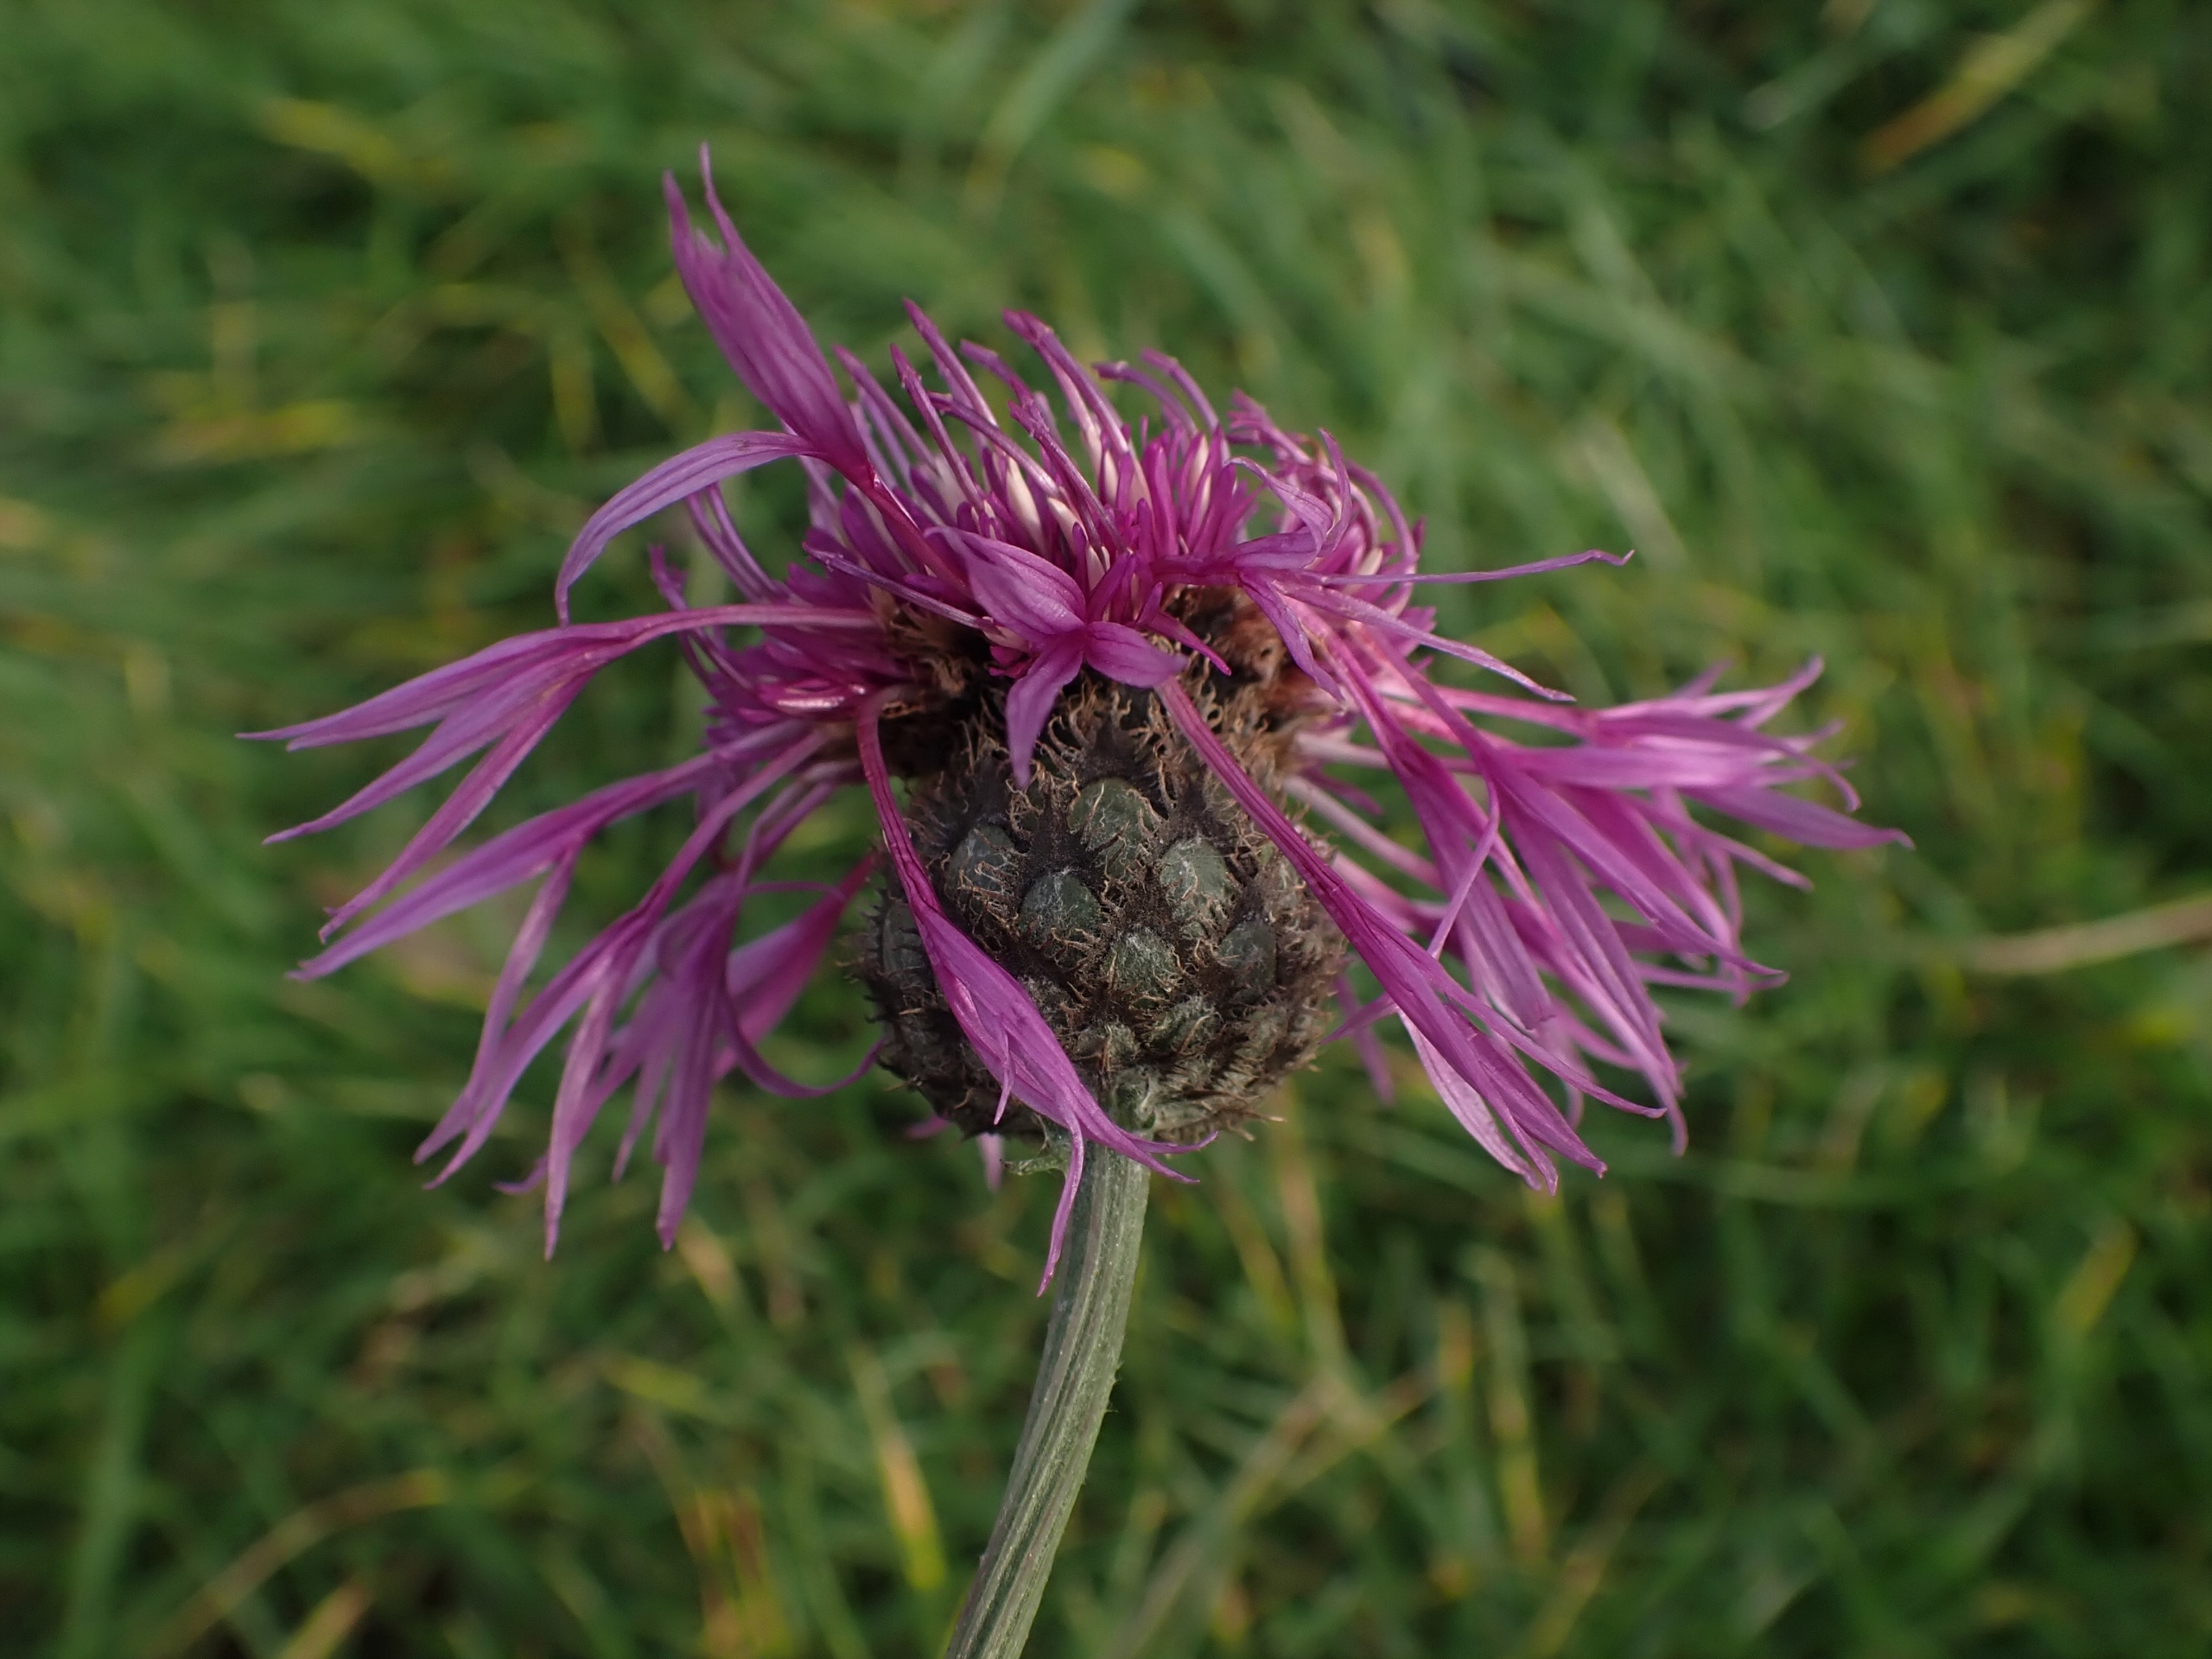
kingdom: Plantae
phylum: Tracheophyta
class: Magnoliopsida
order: Asterales
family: Asteraceae
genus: Centaurea
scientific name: Centaurea scabiosa
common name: Stor knopurt
